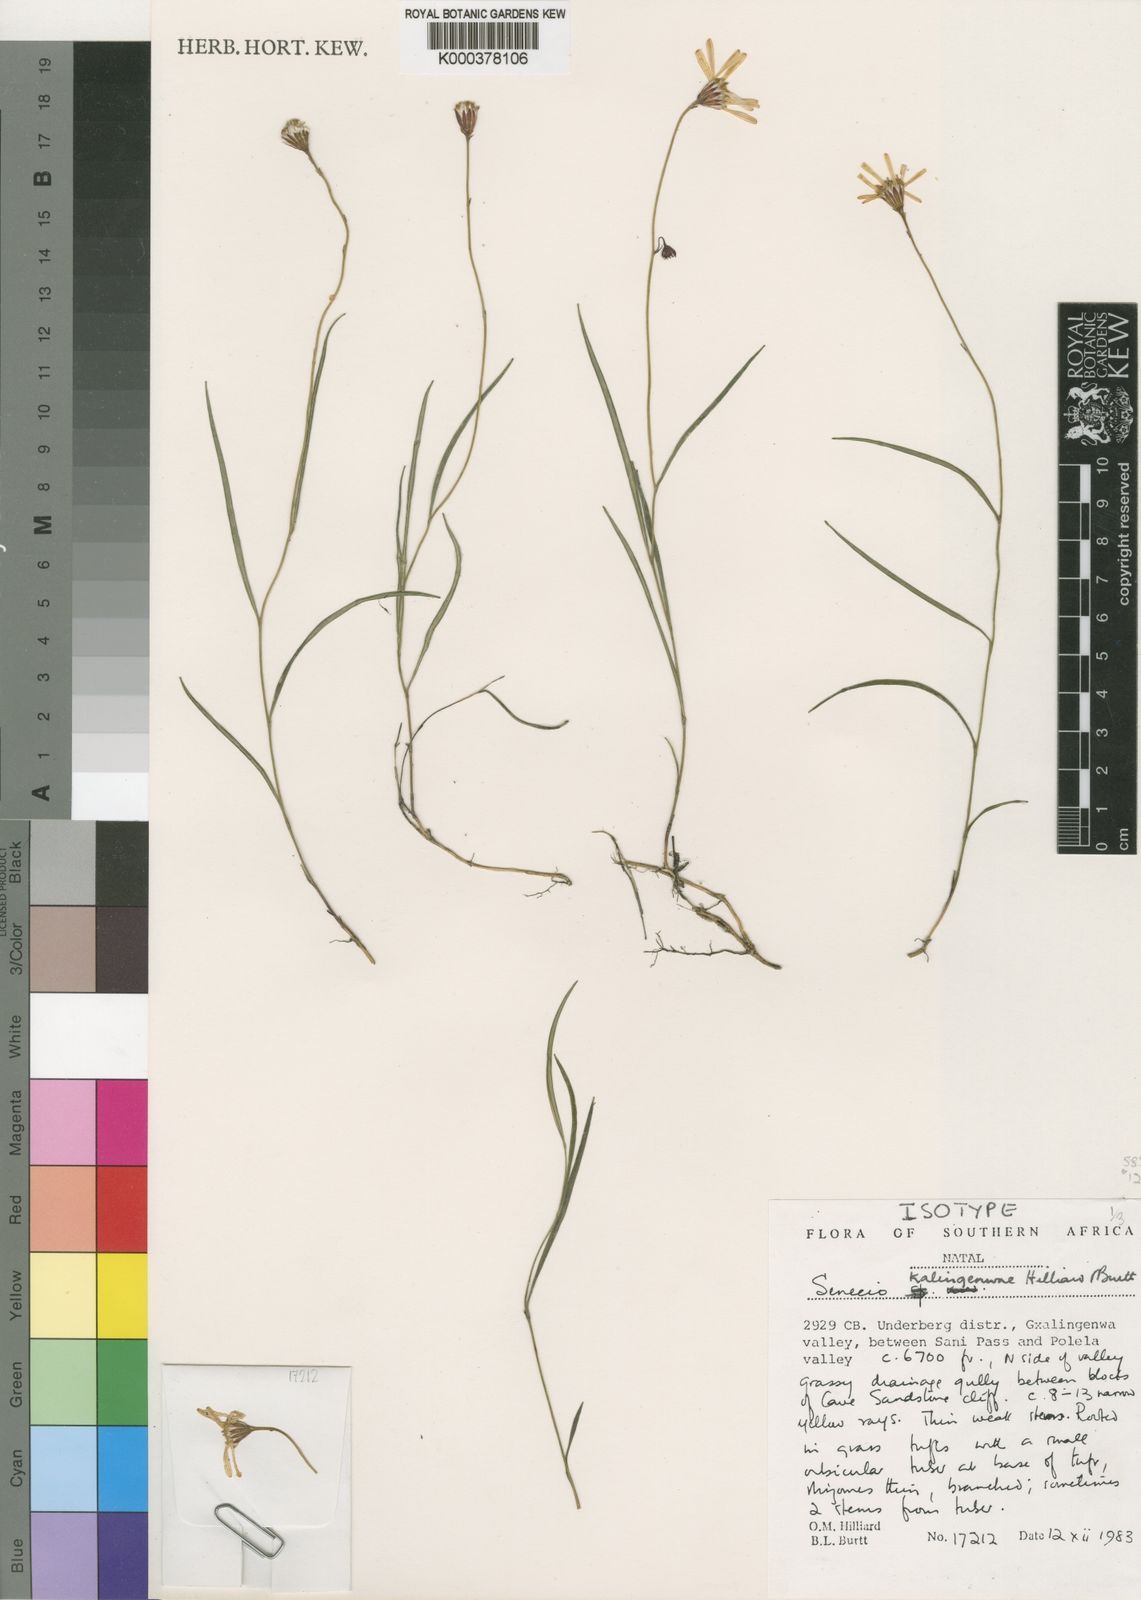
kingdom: Plantae
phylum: Tracheophyta
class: Magnoliopsida
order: Asterales
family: Asteraceae
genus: Senecio
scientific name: Senecio kalingenwae
